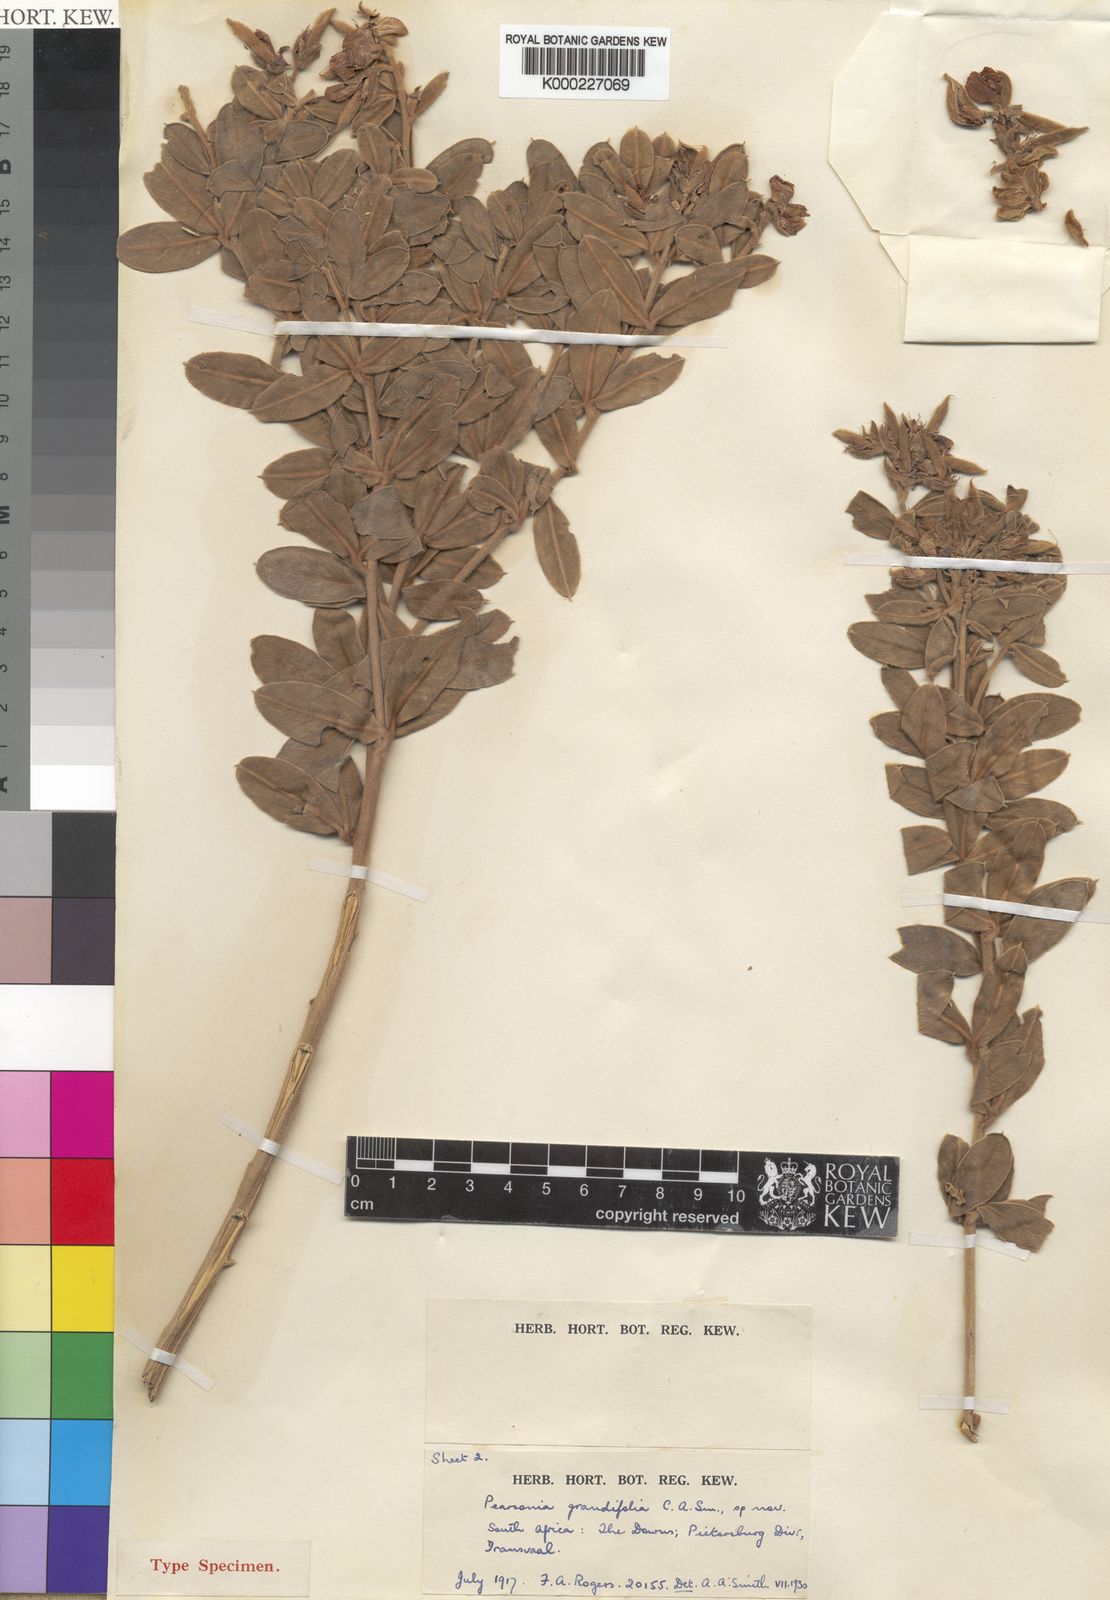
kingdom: Plantae
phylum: Tracheophyta
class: Magnoliopsida
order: Fabales
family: Fabaceae
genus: Argyrolobium
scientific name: Argyrolobium
